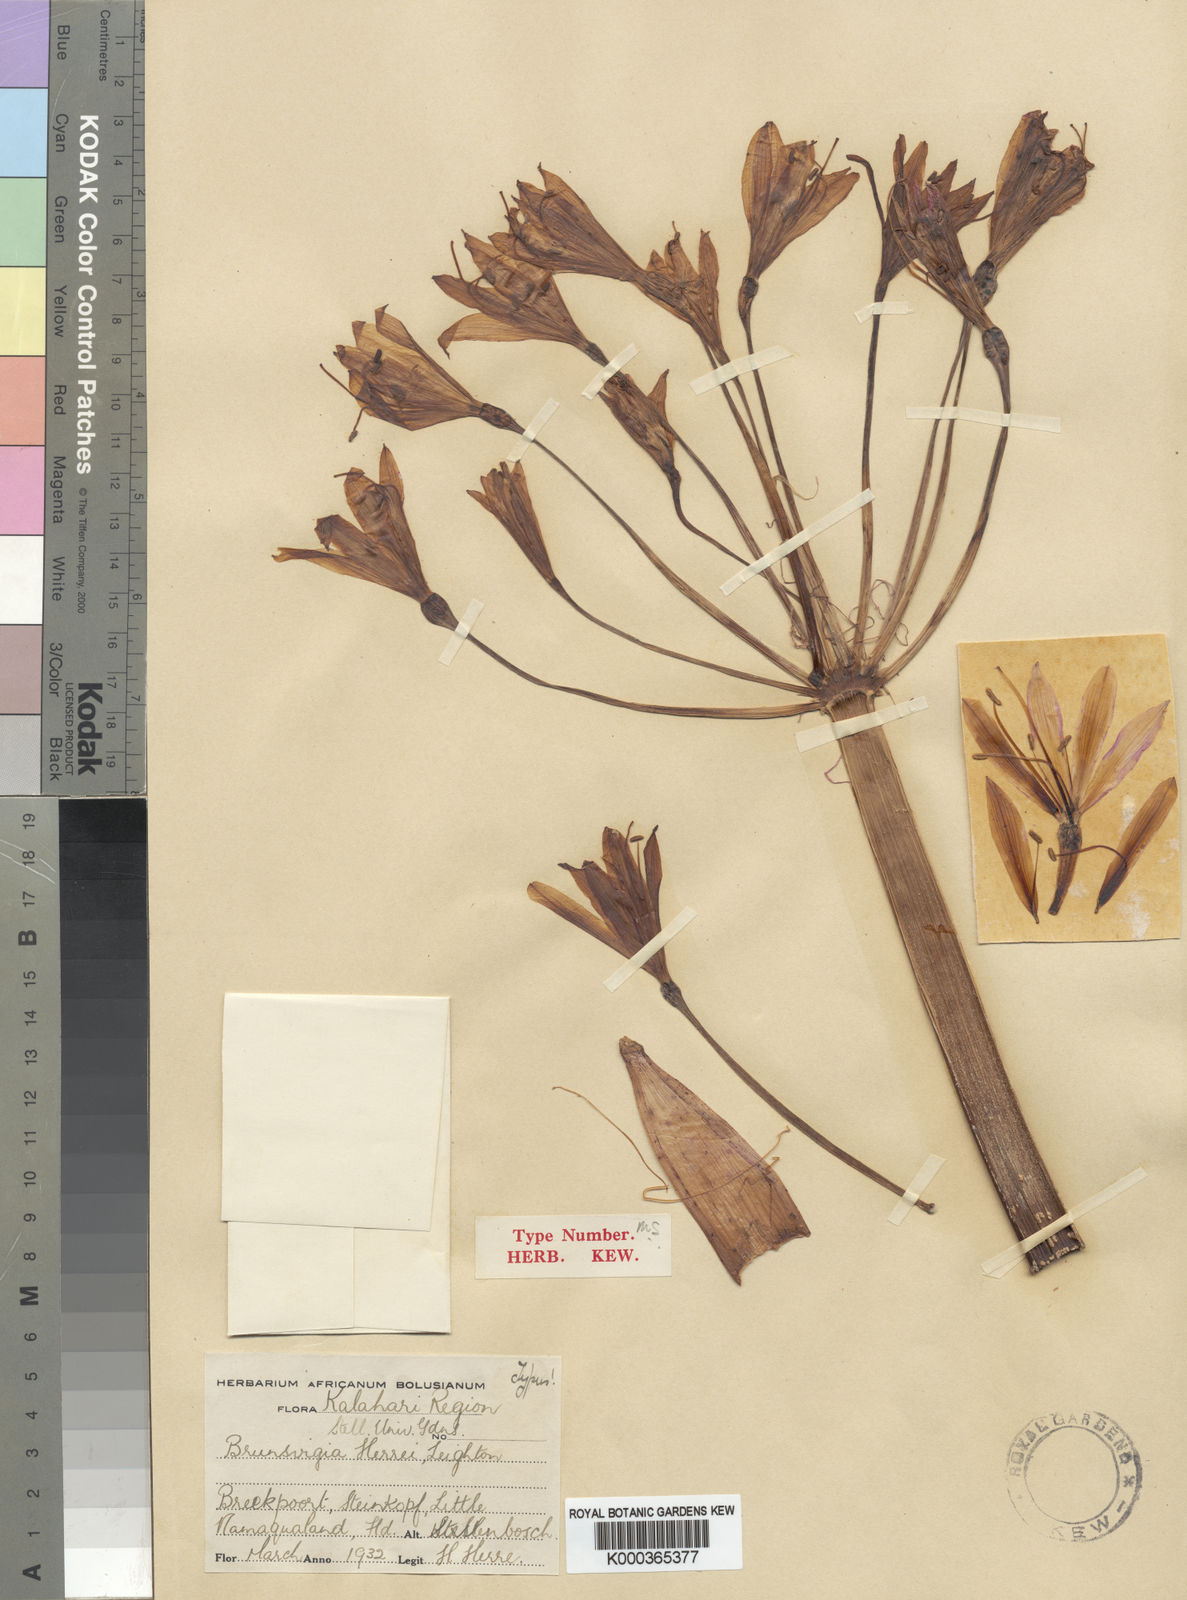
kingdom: Plantae
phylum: Tracheophyta
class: Liliopsida
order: Asparagales
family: Amaryllidaceae
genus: Brunsvigia
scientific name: Brunsvigia herrei
